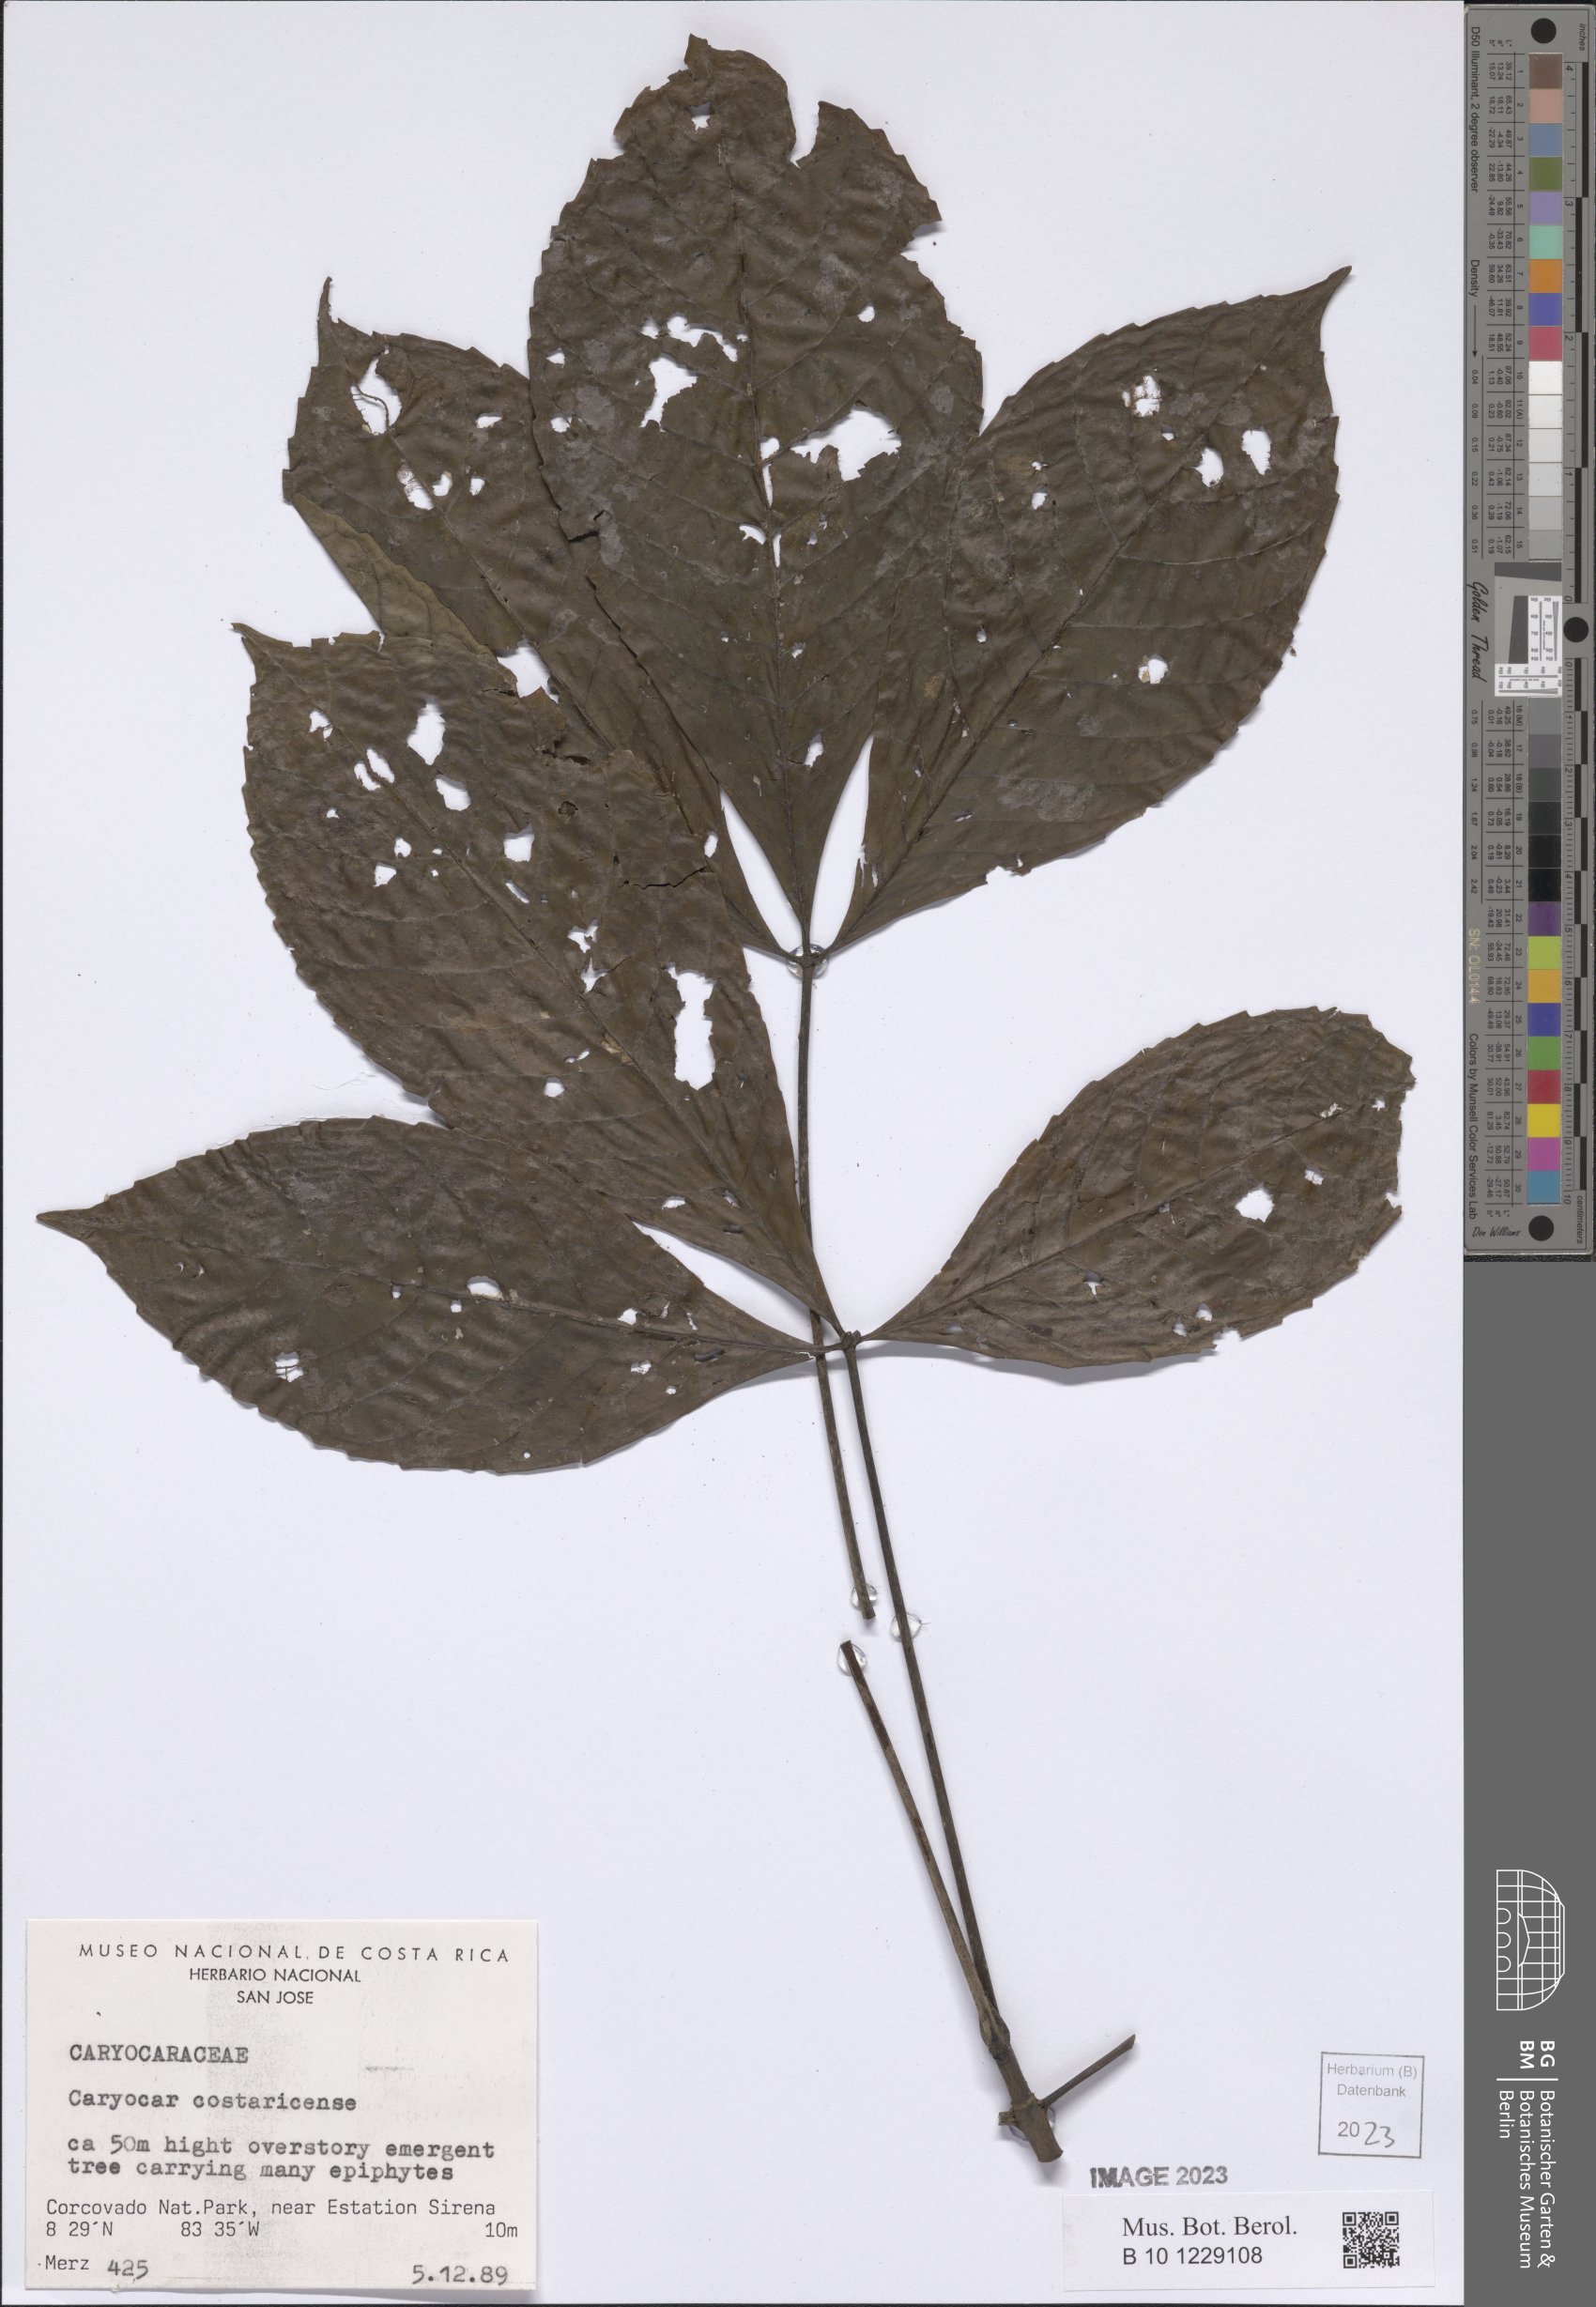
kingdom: Plantae
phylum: Tracheophyta
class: Magnoliopsida
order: Malpighiales
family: Caryocaraceae
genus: Caryocar
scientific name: Caryocar costaricense
